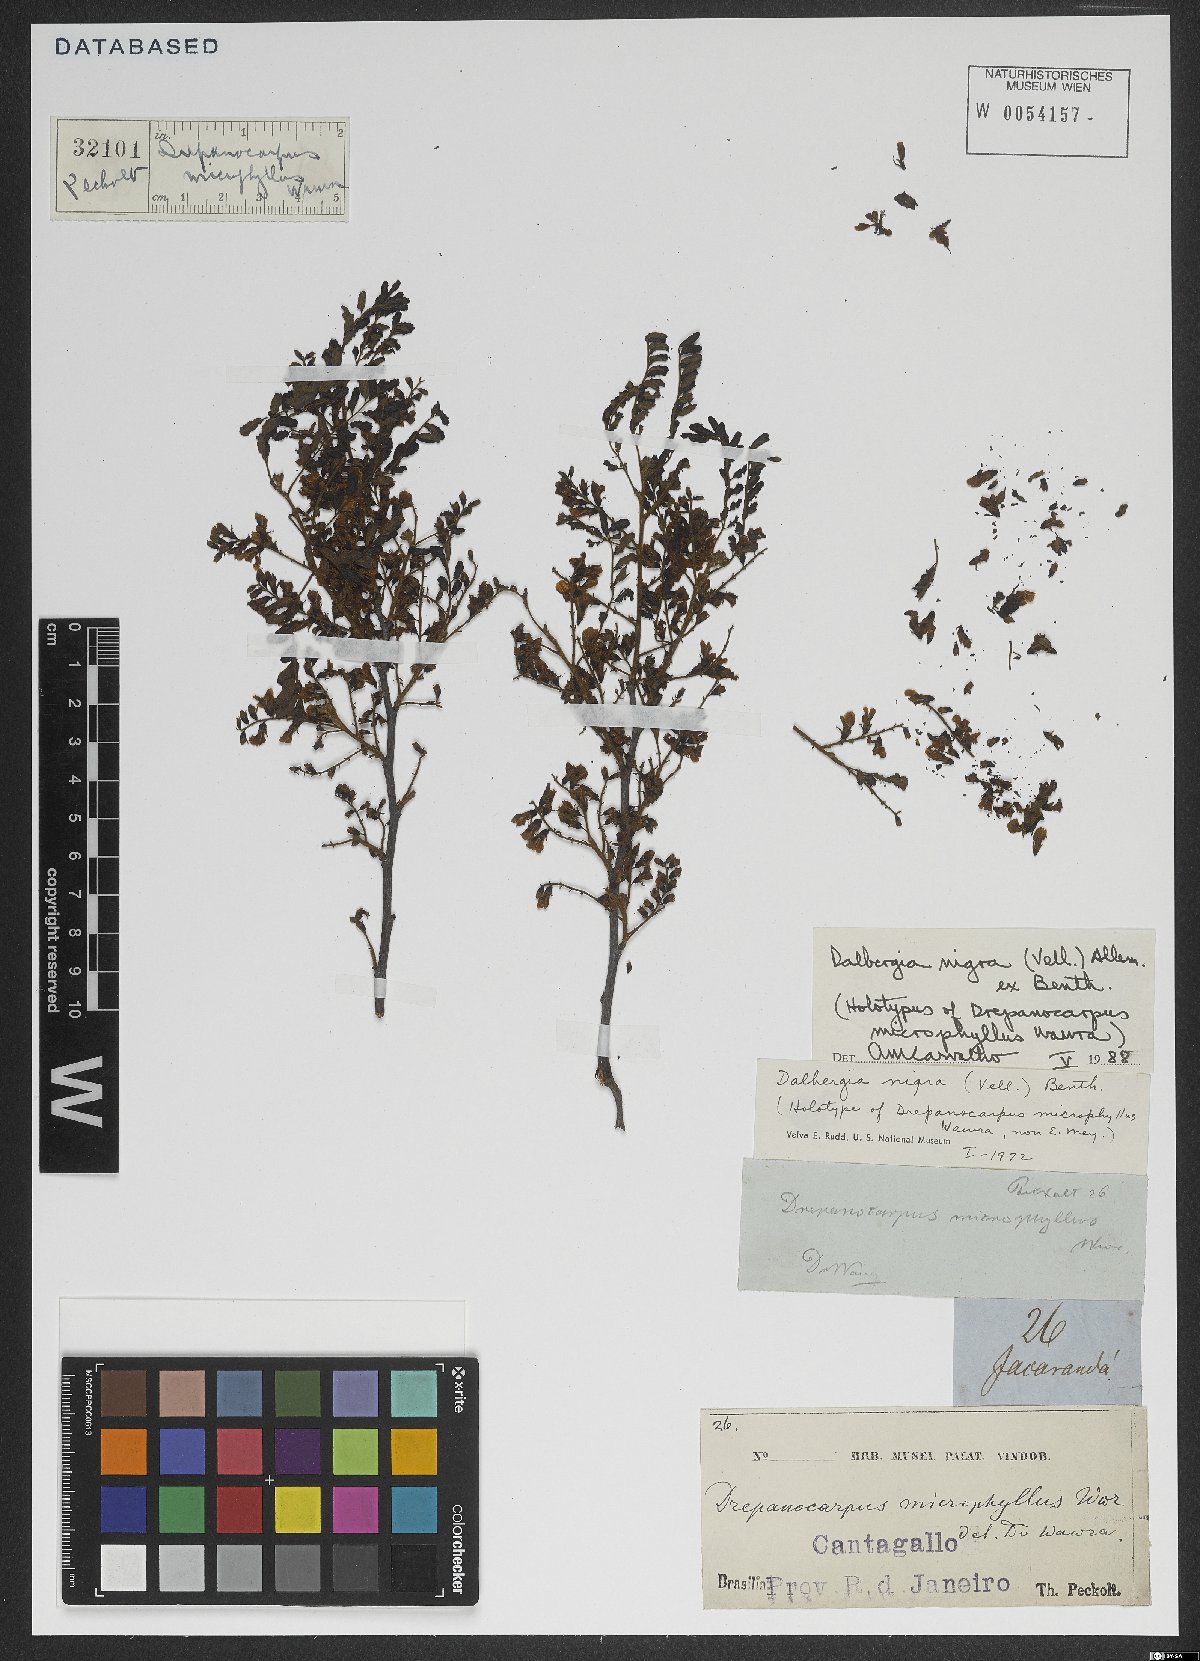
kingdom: Plantae
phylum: Tracheophyta
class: Magnoliopsida
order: Fabales
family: Fabaceae
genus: Dalbergia
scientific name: Dalbergia nigra
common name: Bahia rosewood
